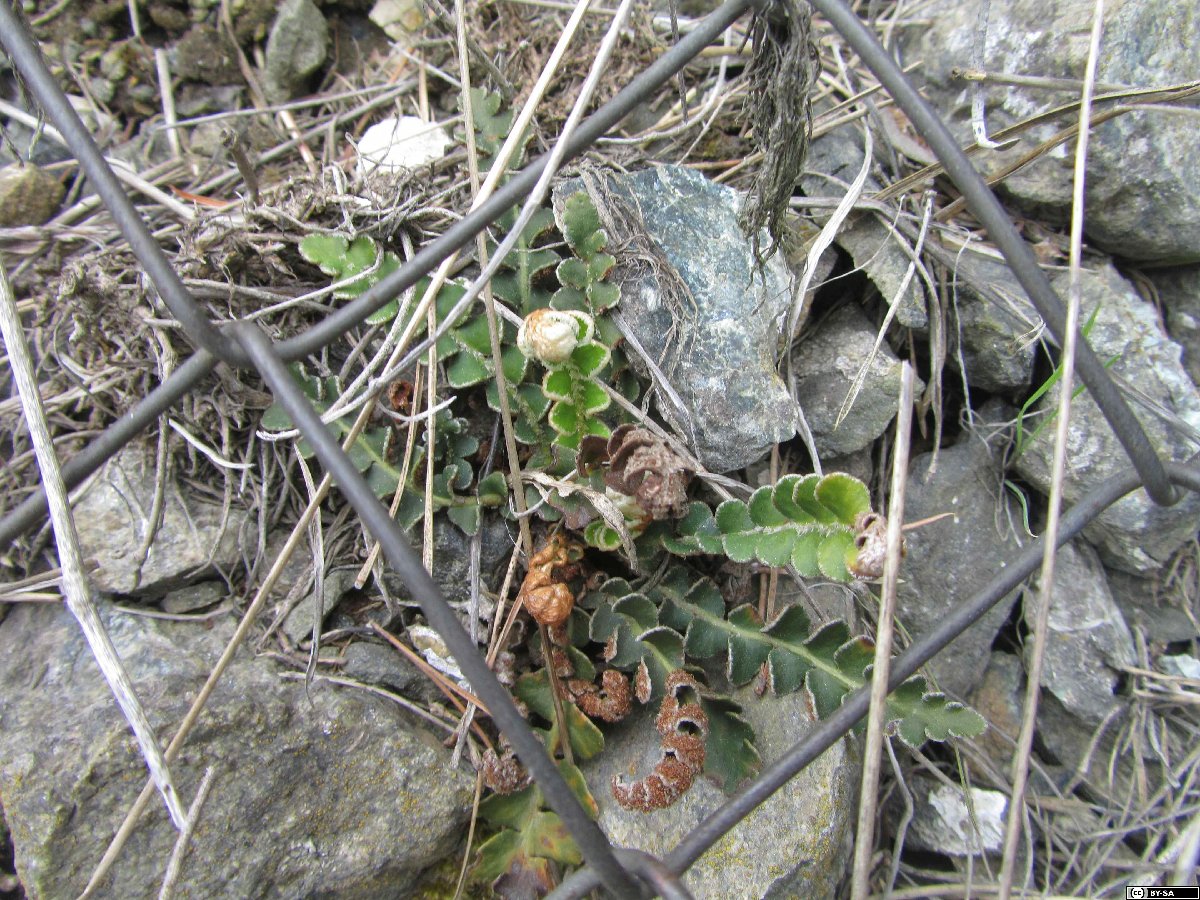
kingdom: Plantae
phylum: Tracheophyta
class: Polypodiopsida
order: Polypodiales
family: Aspleniaceae
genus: Asplenium
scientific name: Asplenium ceterach
